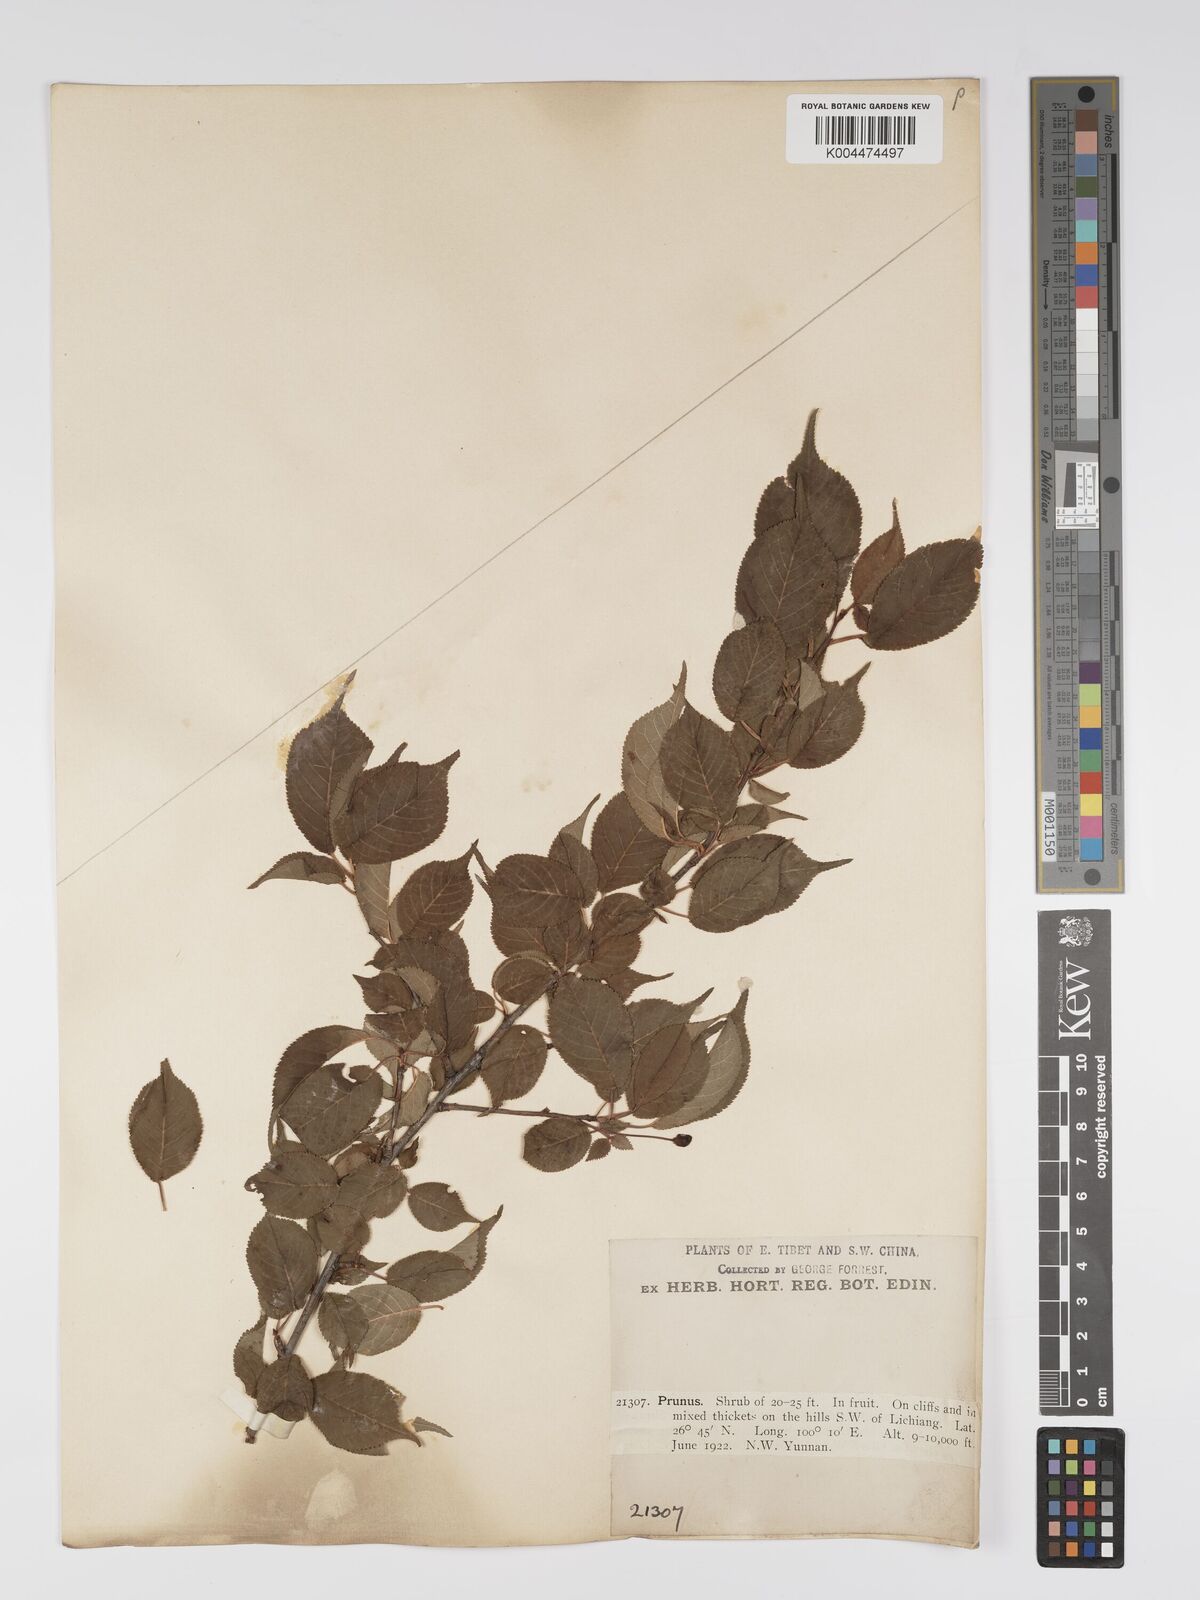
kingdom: Plantae
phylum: Tracheophyta
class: Magnoliopsida
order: Rosales
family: Rosaceae
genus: Prunus
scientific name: Prunus
